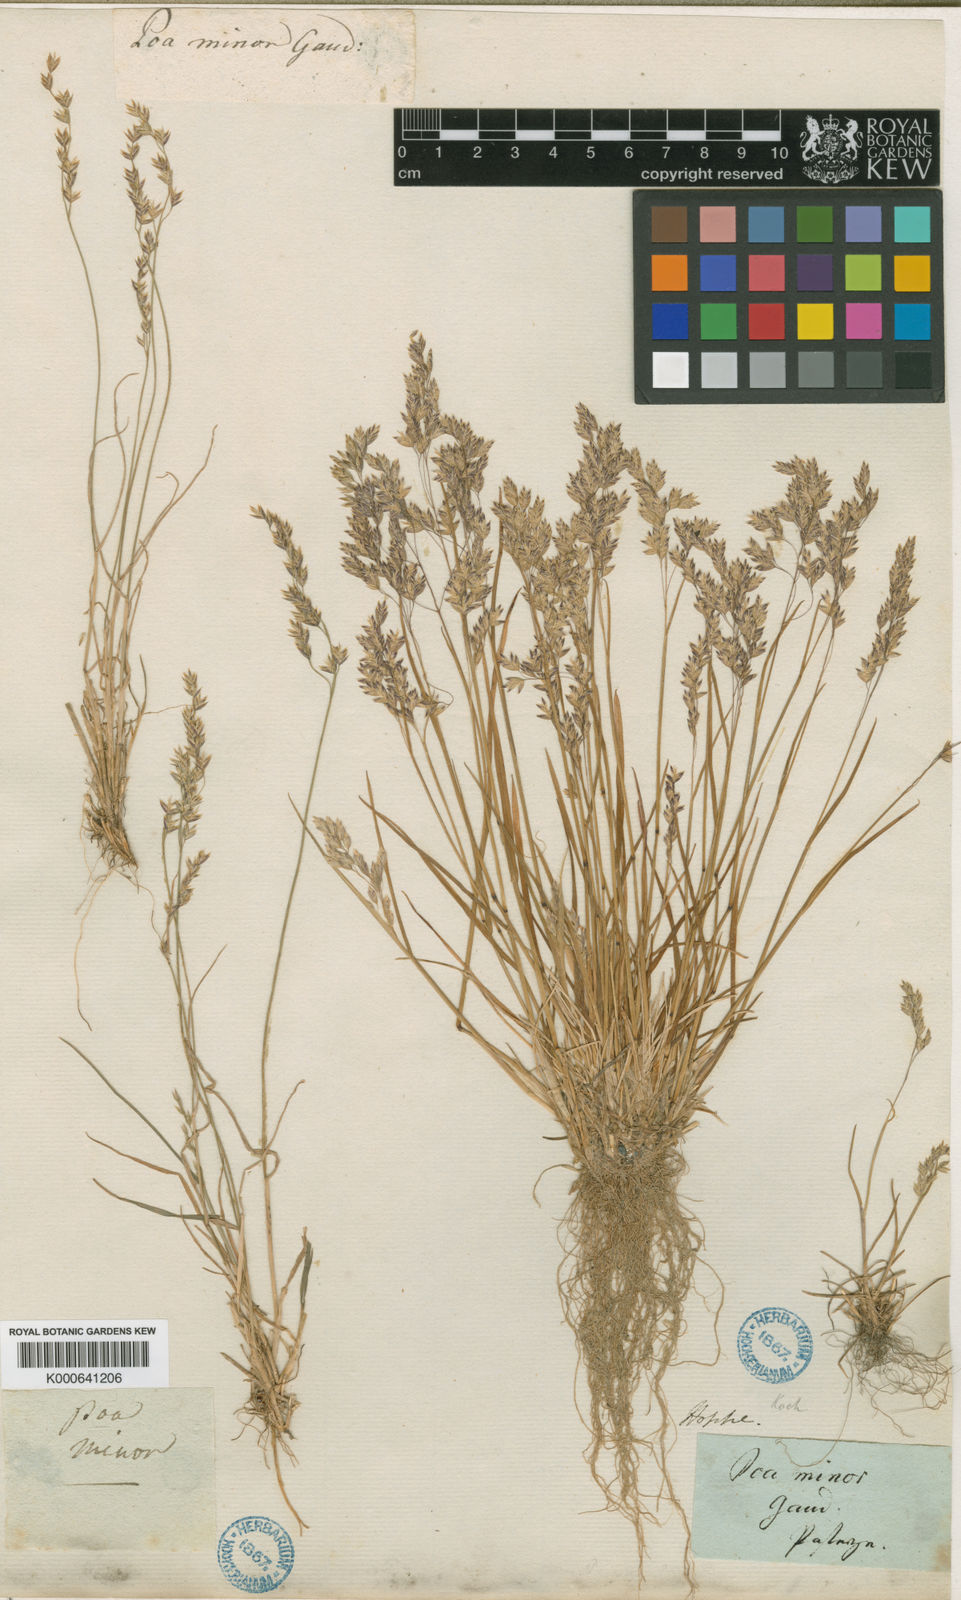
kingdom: Plantae
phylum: Tracheophyta
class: Liliopsida
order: Poales
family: Poaceae
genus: Poa
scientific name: Poa minor
